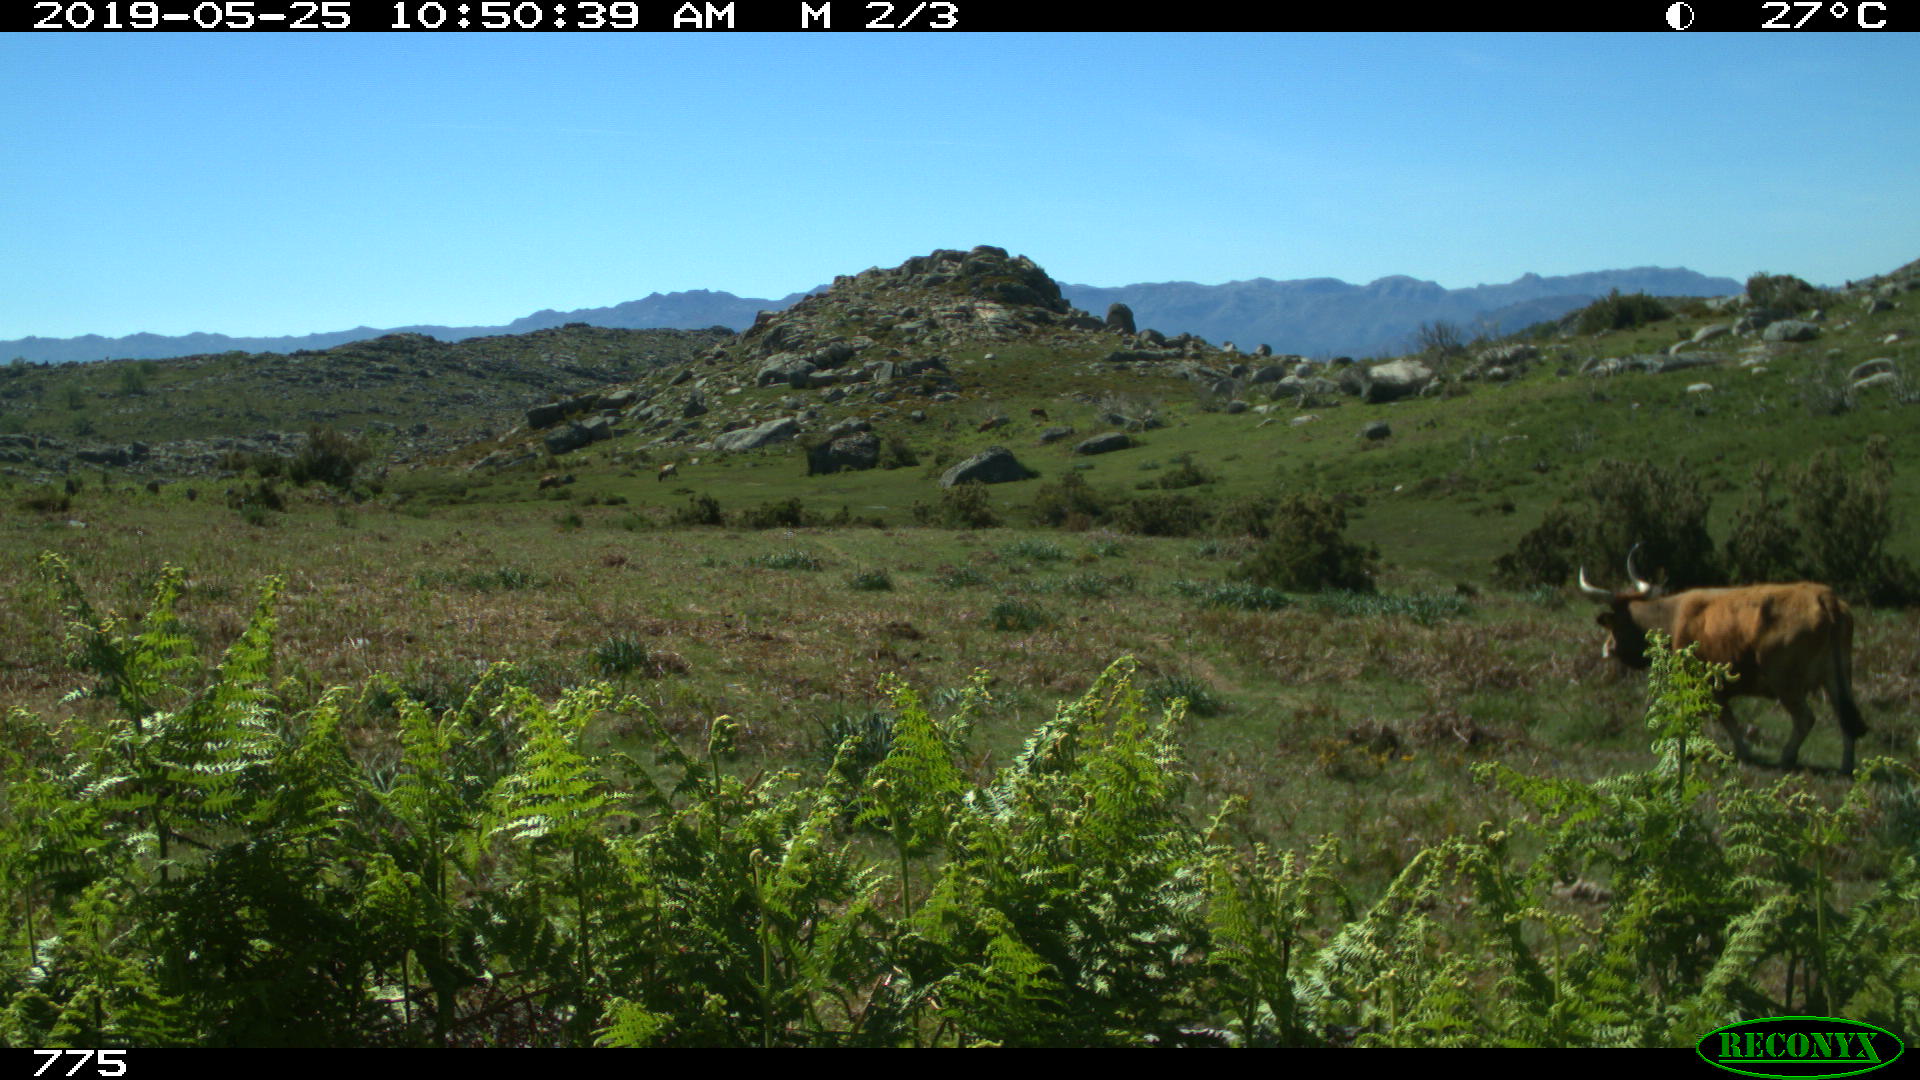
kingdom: Animalia
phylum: Chordata
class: Mammalia
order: Artiodactyla
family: Bovidae
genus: Bos
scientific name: Bos taurus
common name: Domesticated cattle
